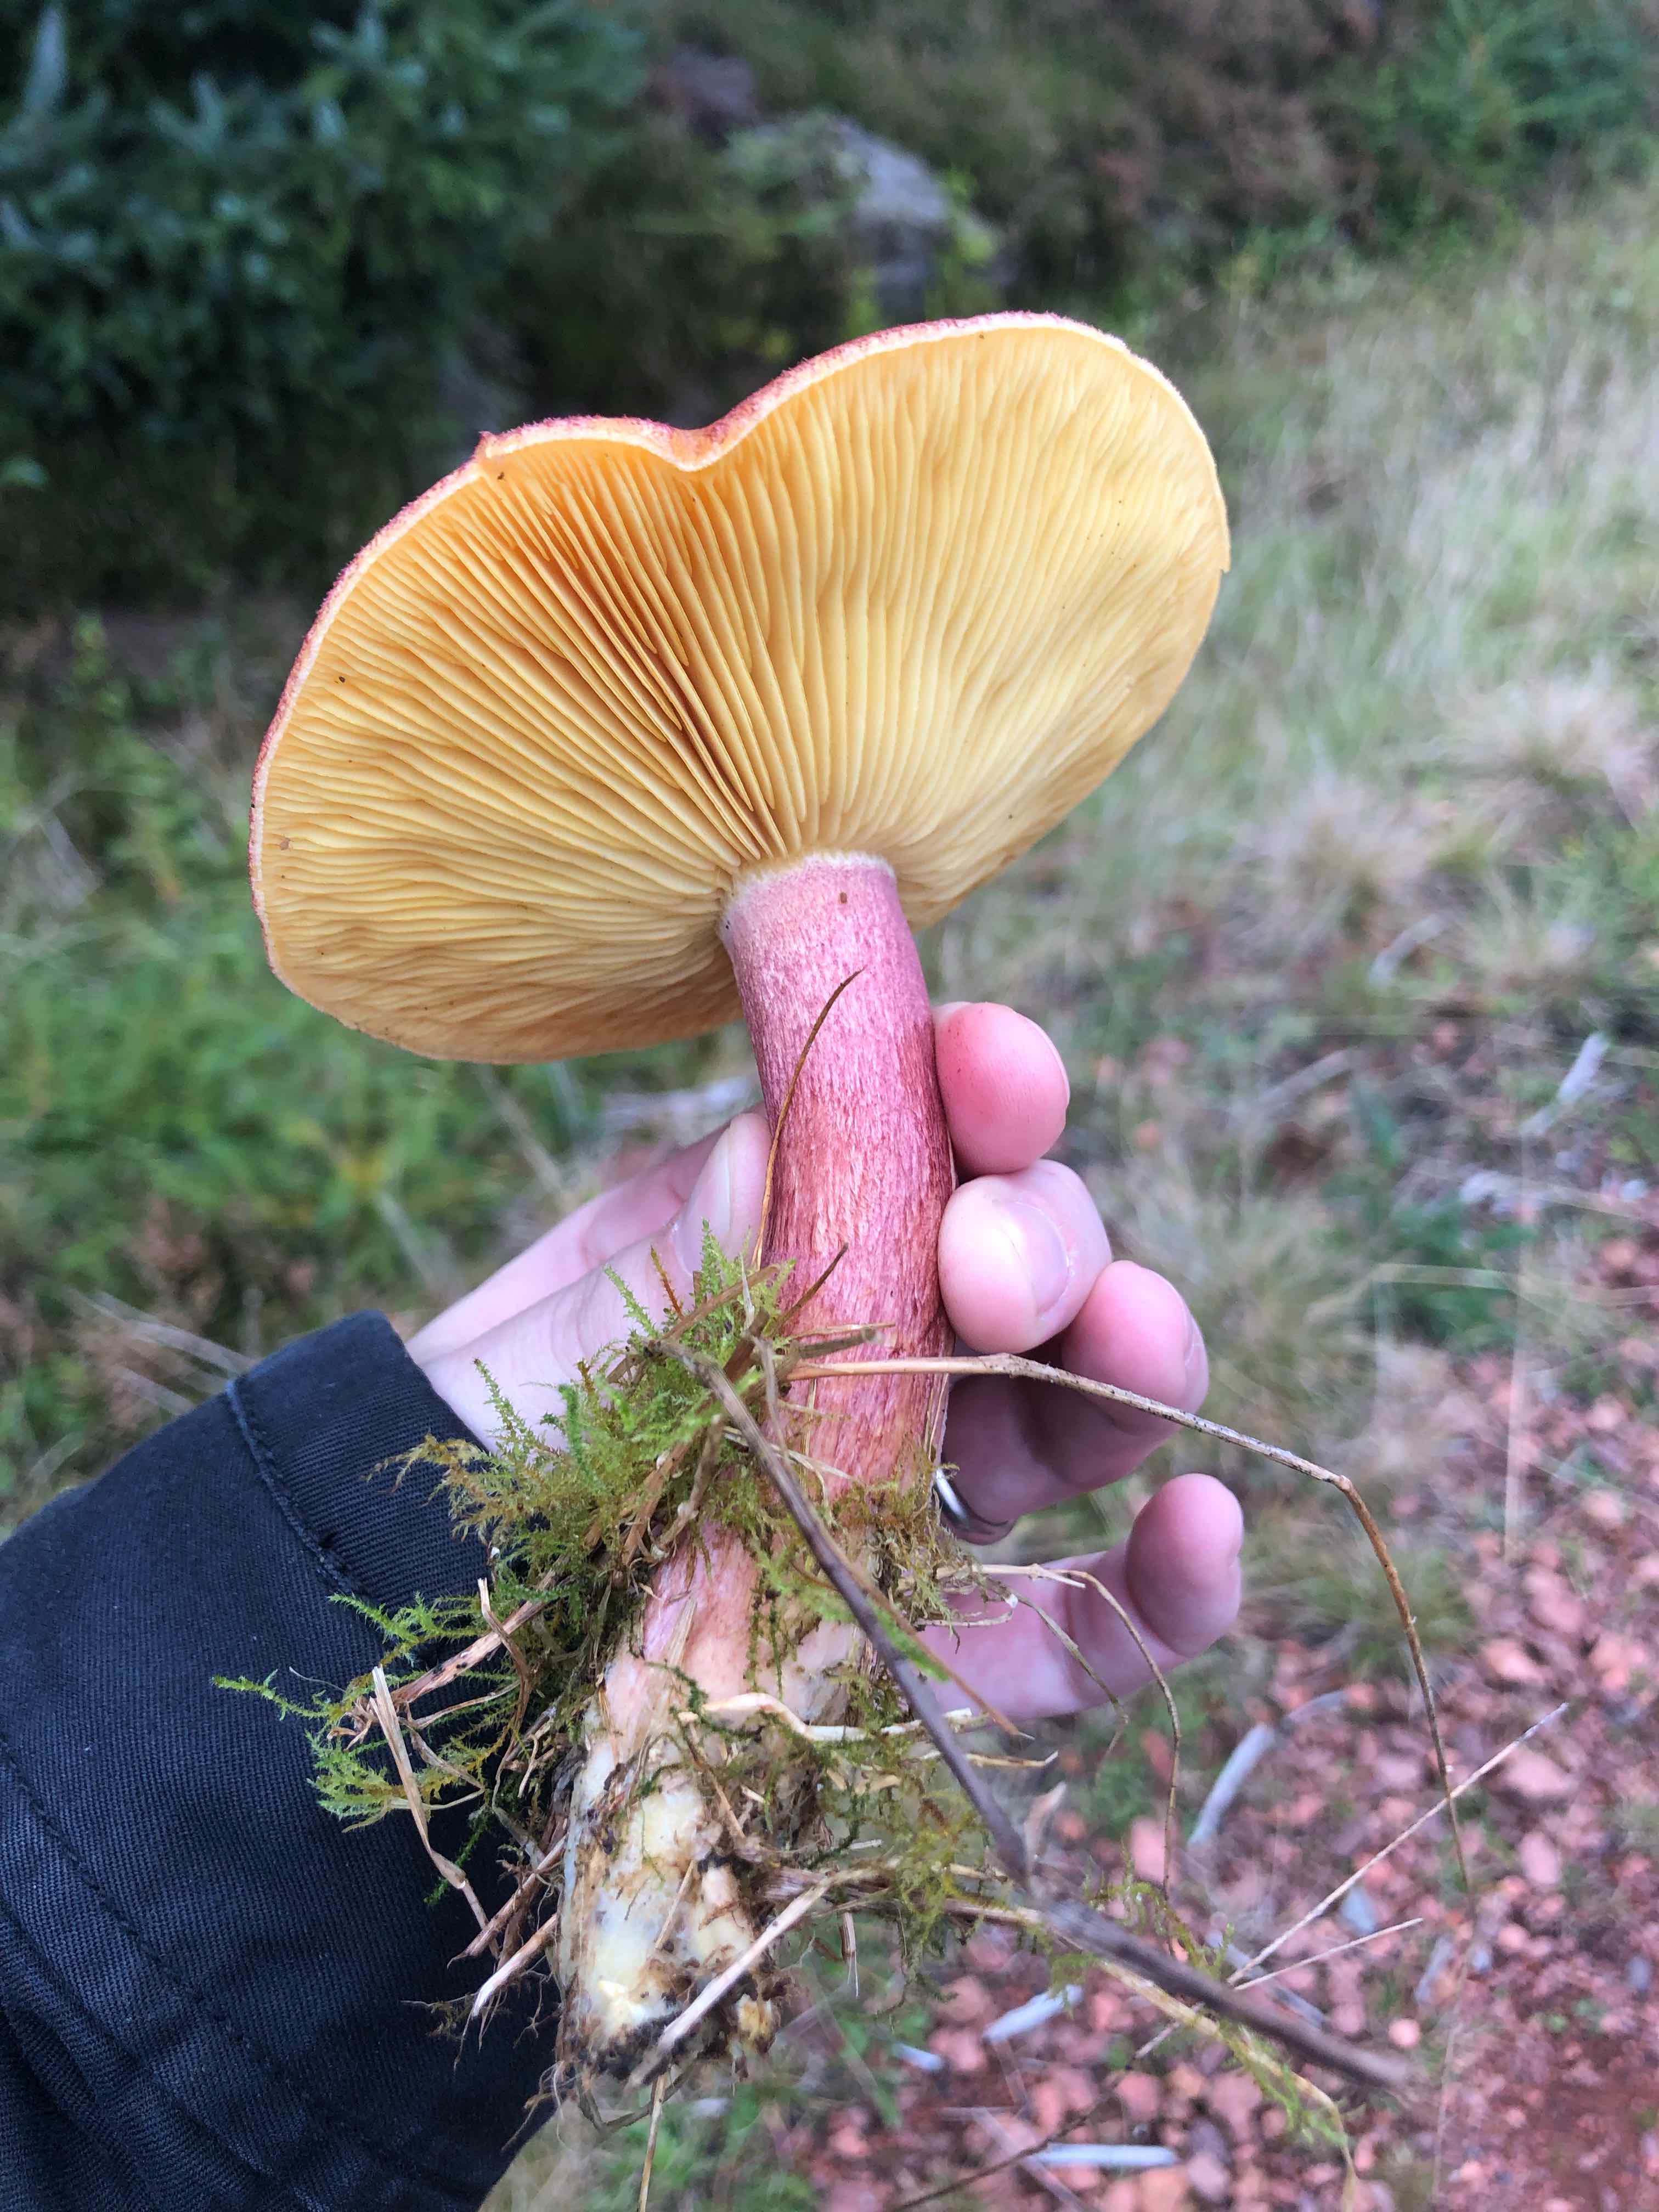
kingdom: Fungi
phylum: Basidiomycota
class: Agaricomycetes
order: Agaricales
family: Tricholomataceae
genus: Tricholomopsis
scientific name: Tricholomopsis rutilans
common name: purpur-væbnerhat
